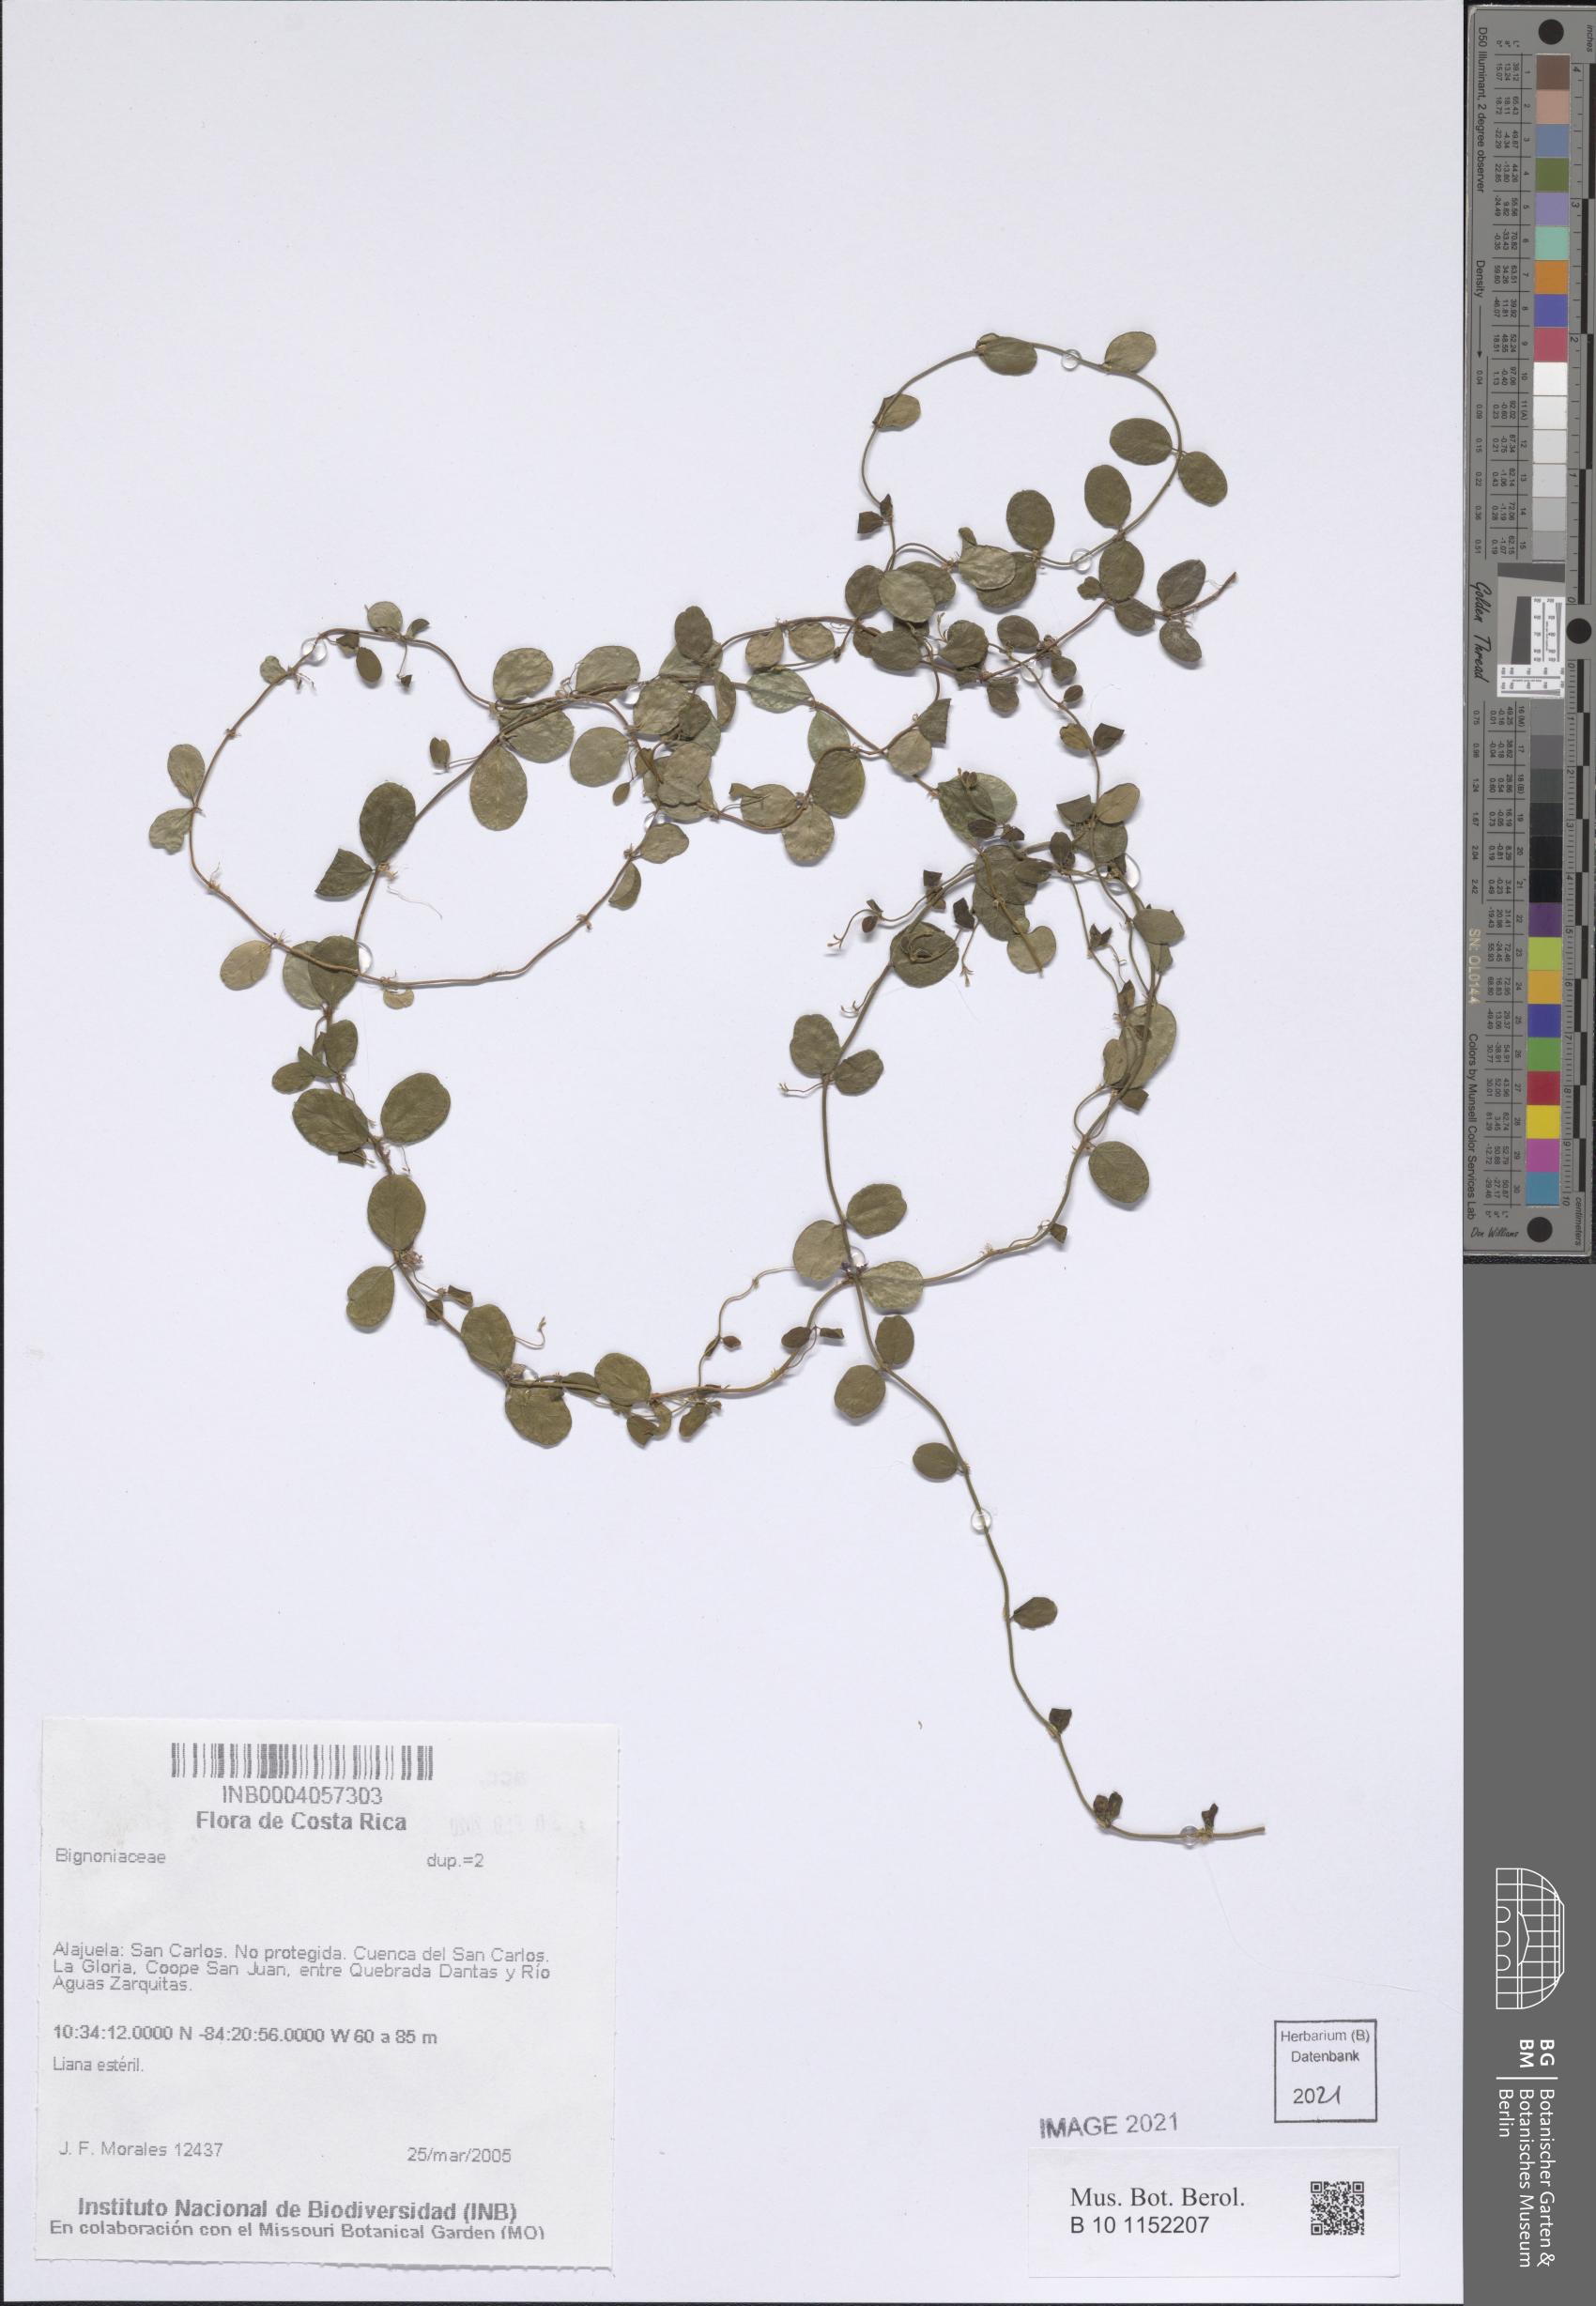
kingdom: Plantae
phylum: Tracheophyta
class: Magnoliopsida
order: Lamiales
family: Bignoniaceae
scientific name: Bignoniaceae
